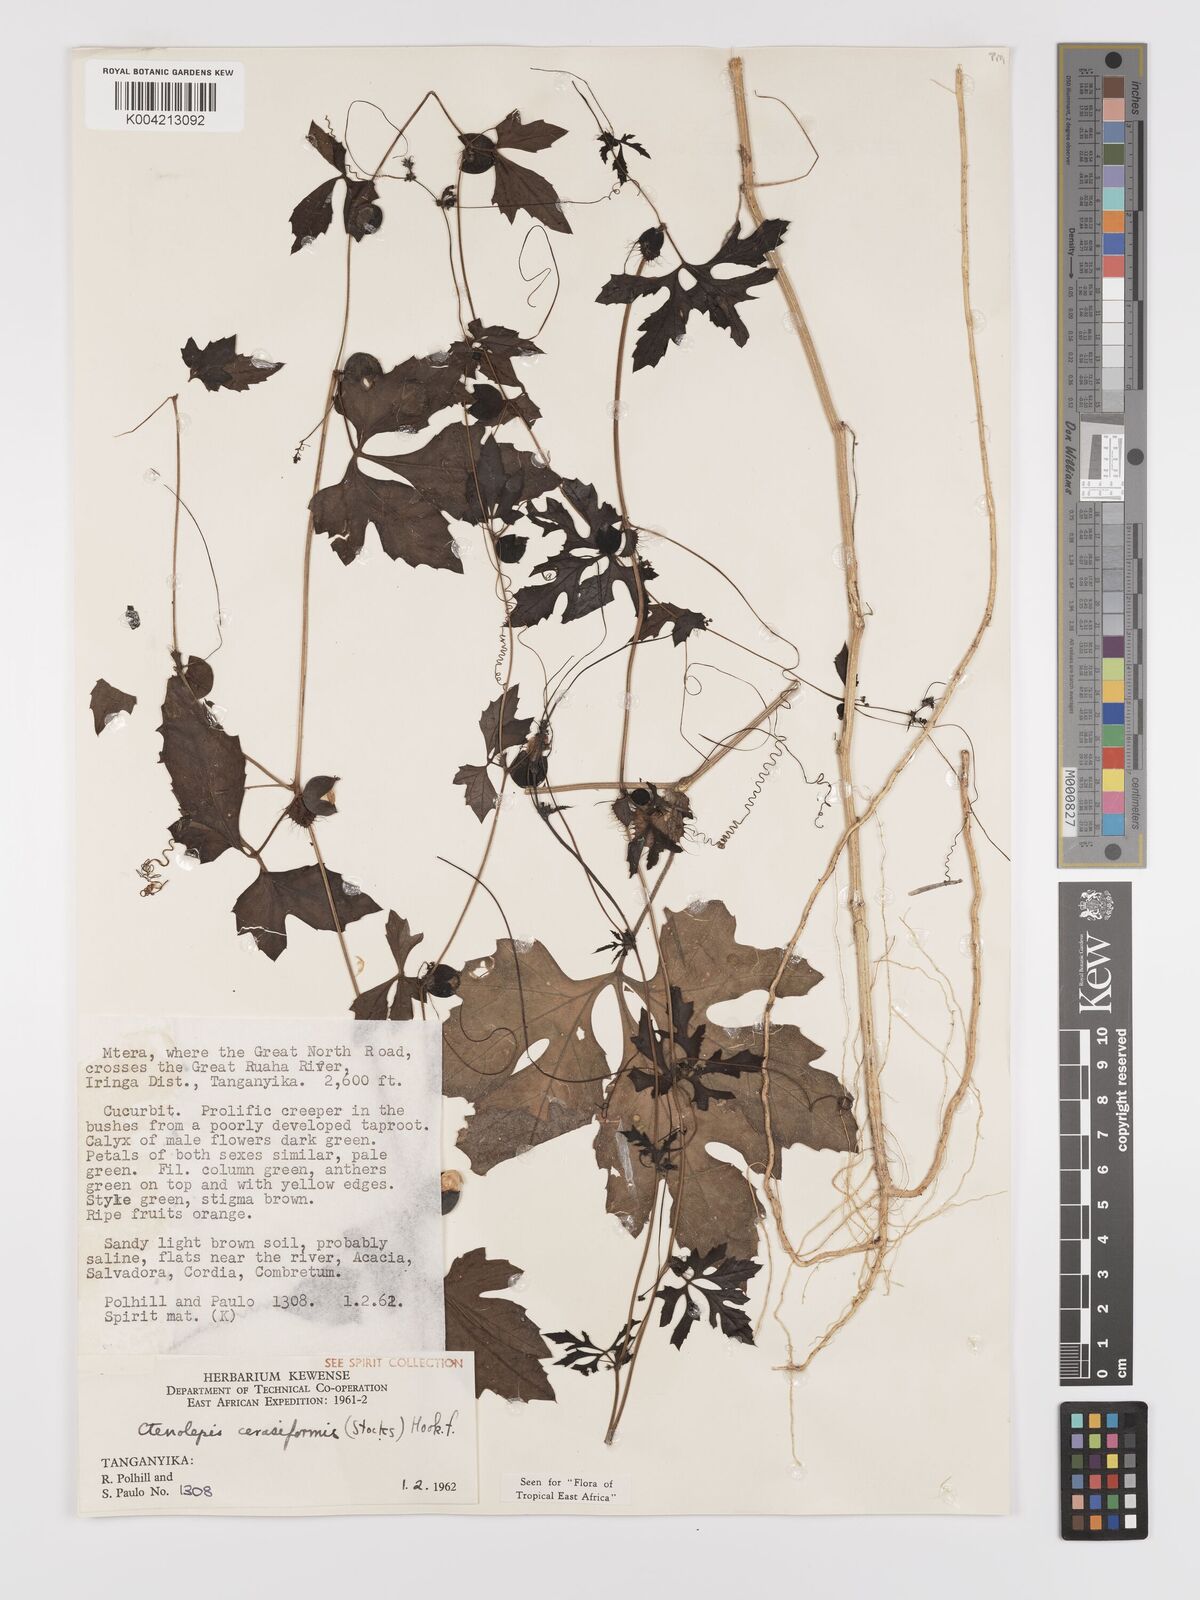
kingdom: Plantae
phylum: Tracheophyta
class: Magnoliopsida
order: Cucurbitales
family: Cucurbitaceae
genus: Blastania
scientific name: Blastania cerasiformis
